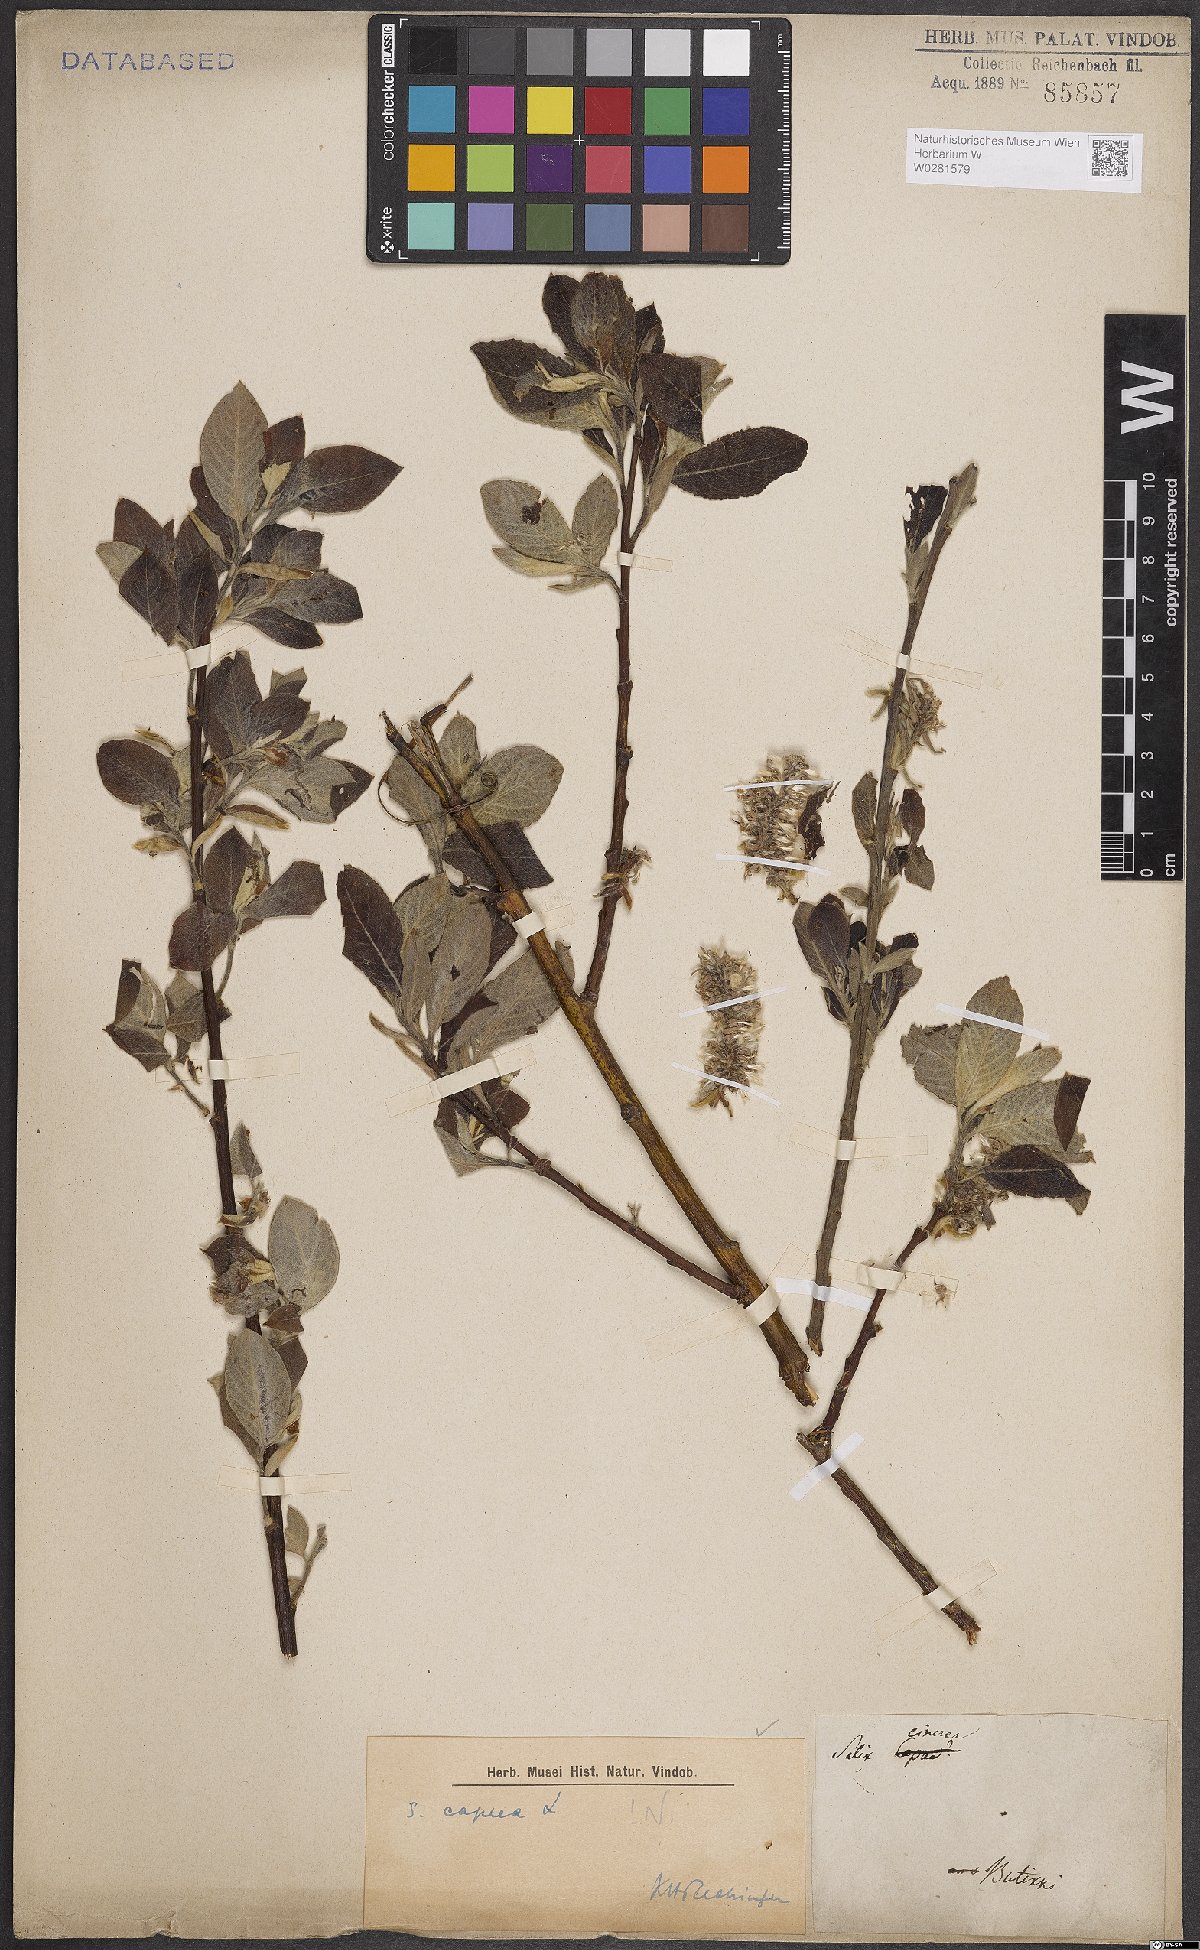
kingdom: Plantae
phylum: Tracheophyta
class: Magnoliopsida
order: Malpighiales
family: Salicaceae
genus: Salix
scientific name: Salix caprea
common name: Goat willow
